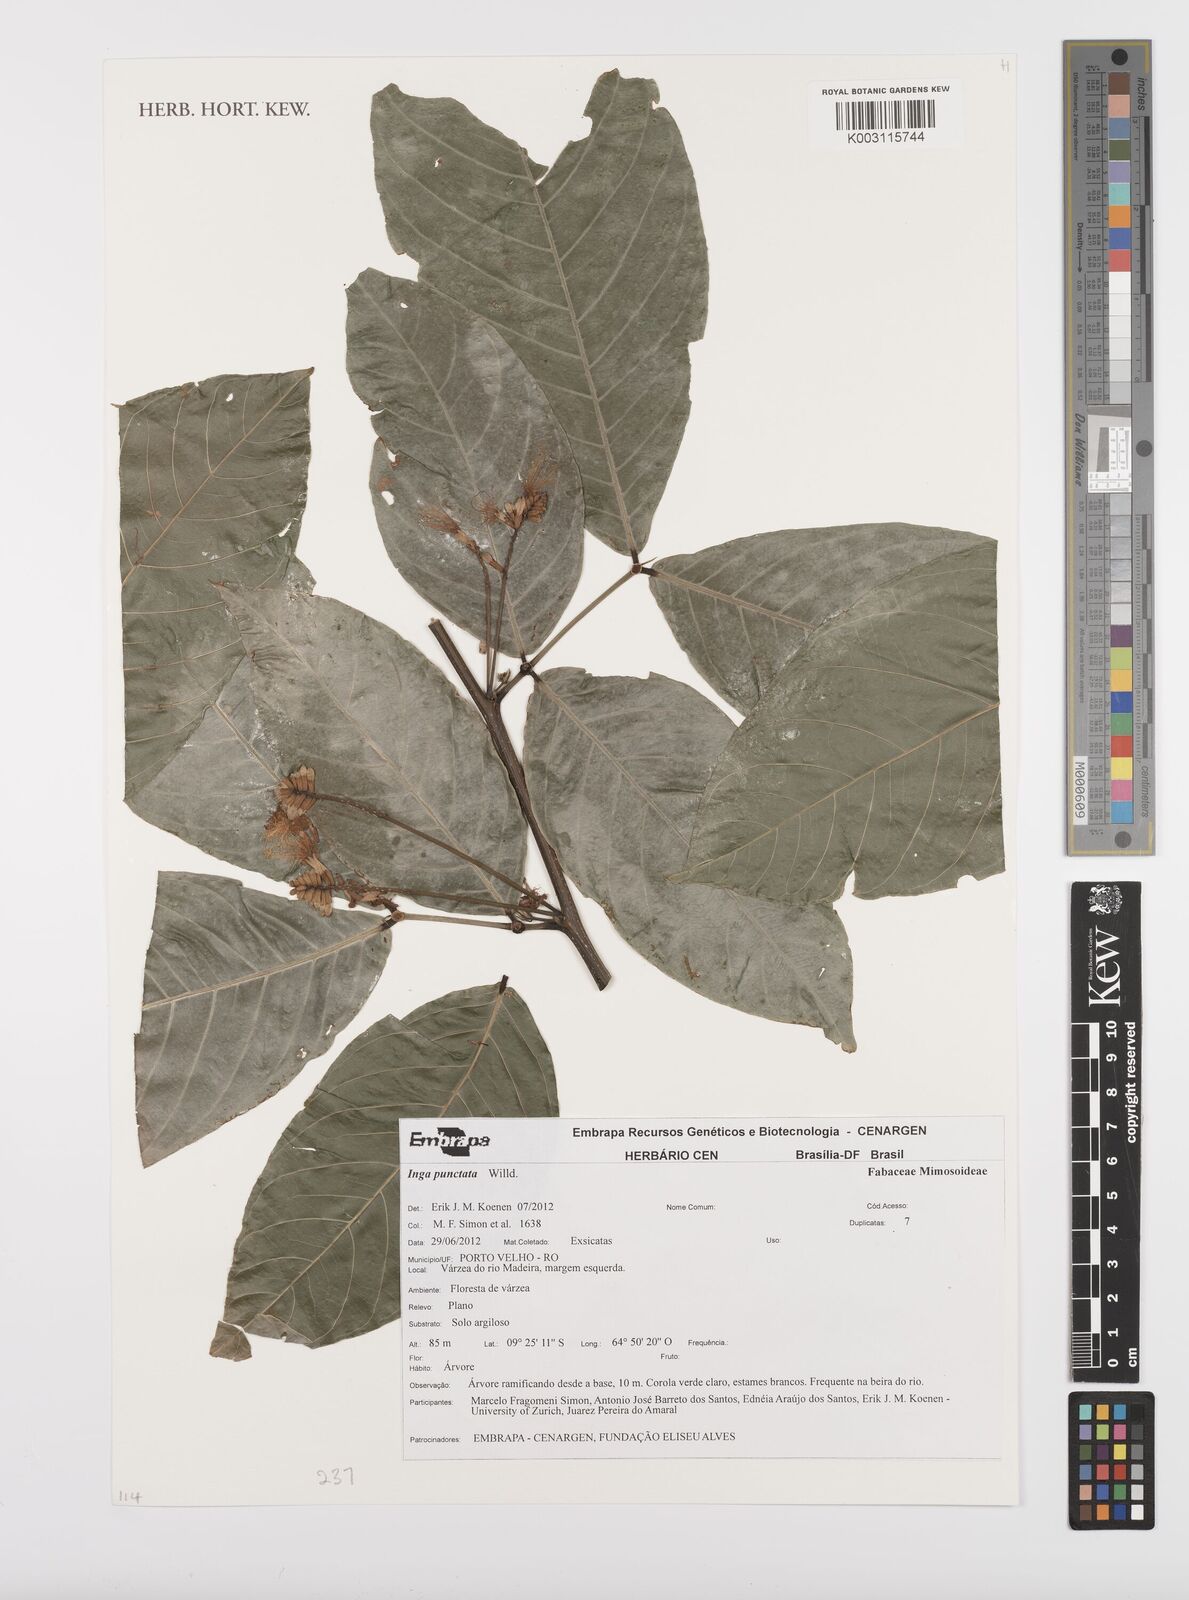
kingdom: Plantae
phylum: Tracheophyta
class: Magnoliopsida
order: Fabales
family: Fabaceae
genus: Inga
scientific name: Inga punctata
